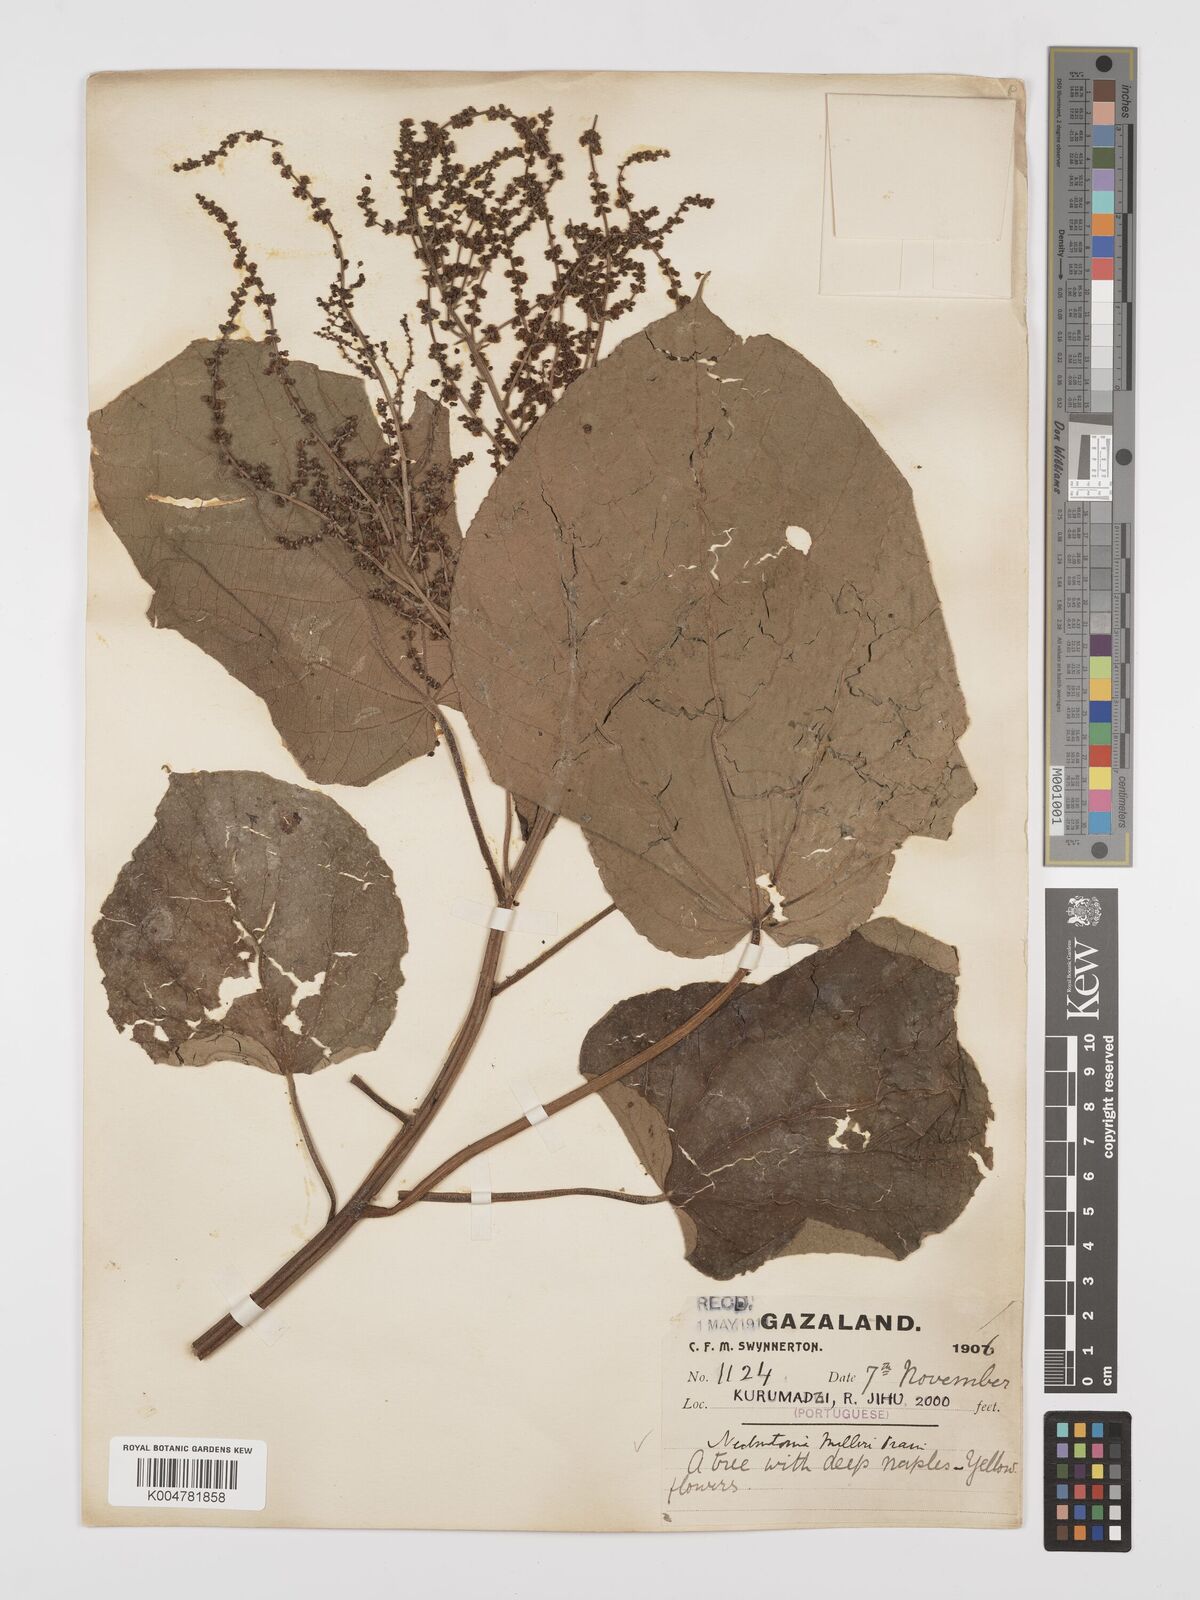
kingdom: Plantae
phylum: Tracheophyta
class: Magnoliopsida
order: Malpighiales
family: Euphorbiaceae
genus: Neoboutonia
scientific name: Neoboutonia melleri
